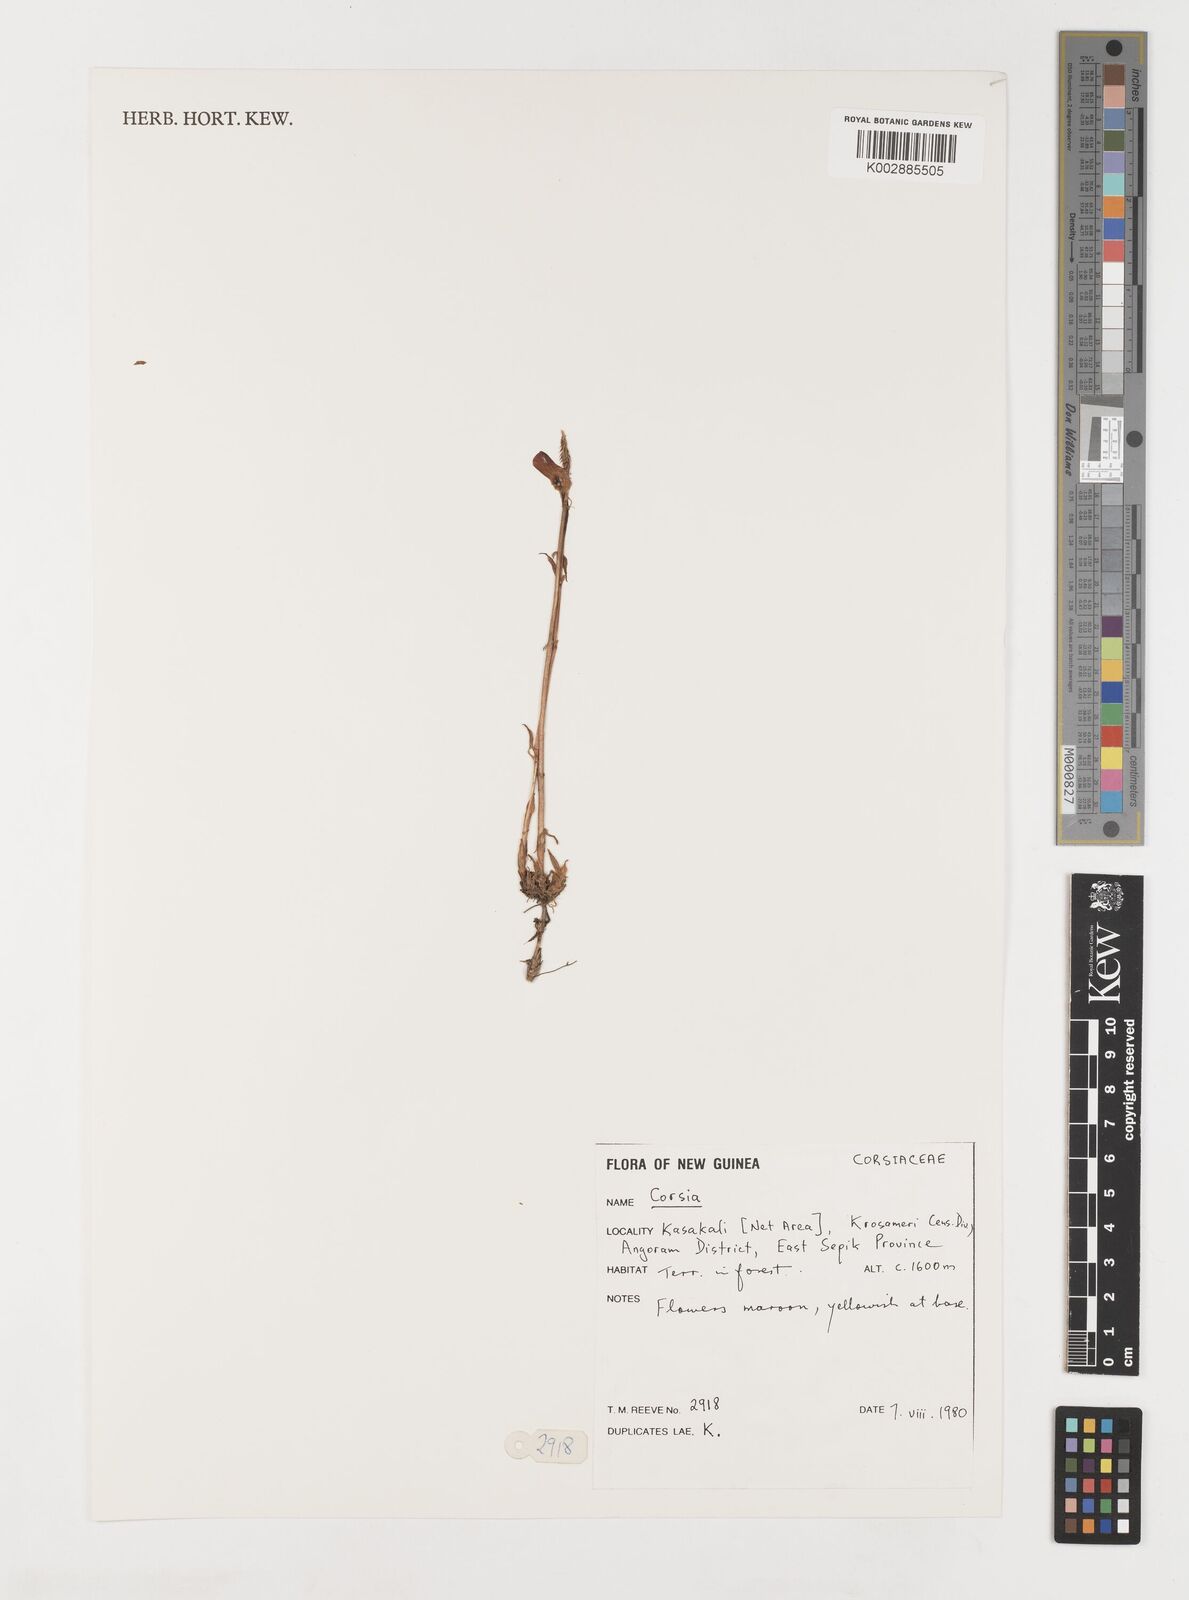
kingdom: Plantae
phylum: Tracheophyta
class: Liliopsida
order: Liliales
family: Corsiaceae
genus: Corsia
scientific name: Corsia
